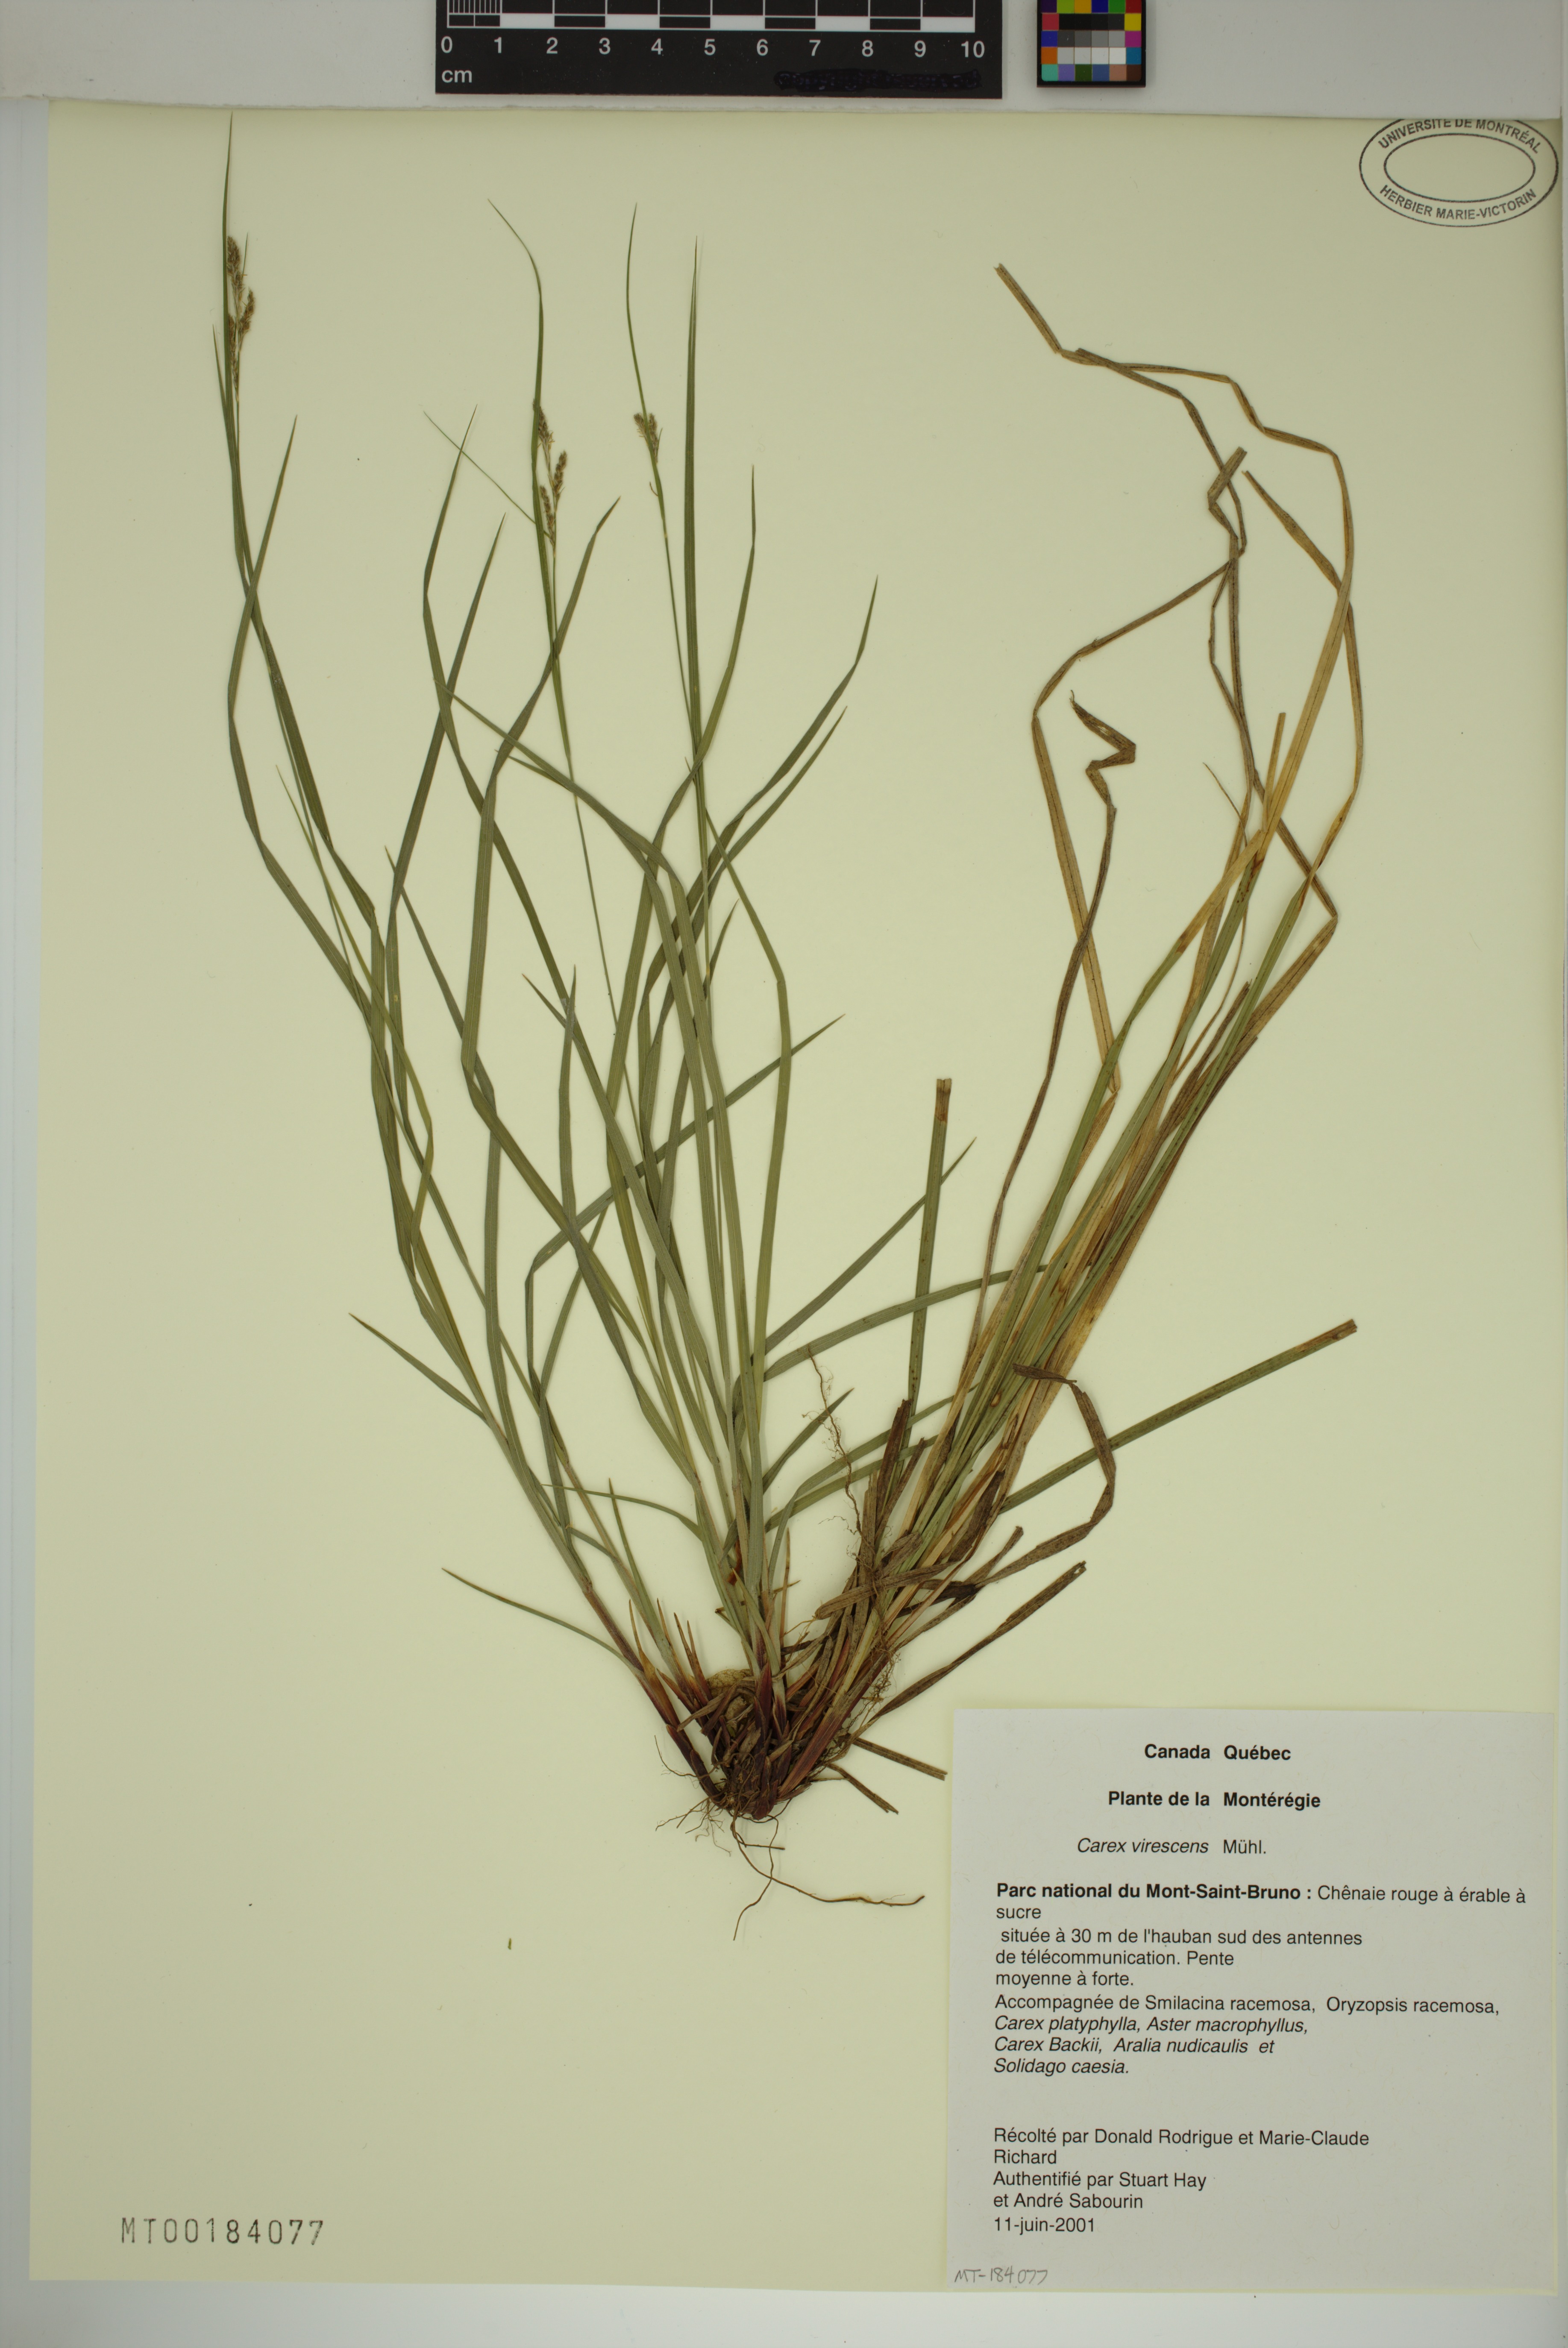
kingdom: Plantae
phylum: Tracheophyta
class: Liliopsida
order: Poales
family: Cyperaceae
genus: Carex
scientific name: Carex virescens
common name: Ribbed sedge
